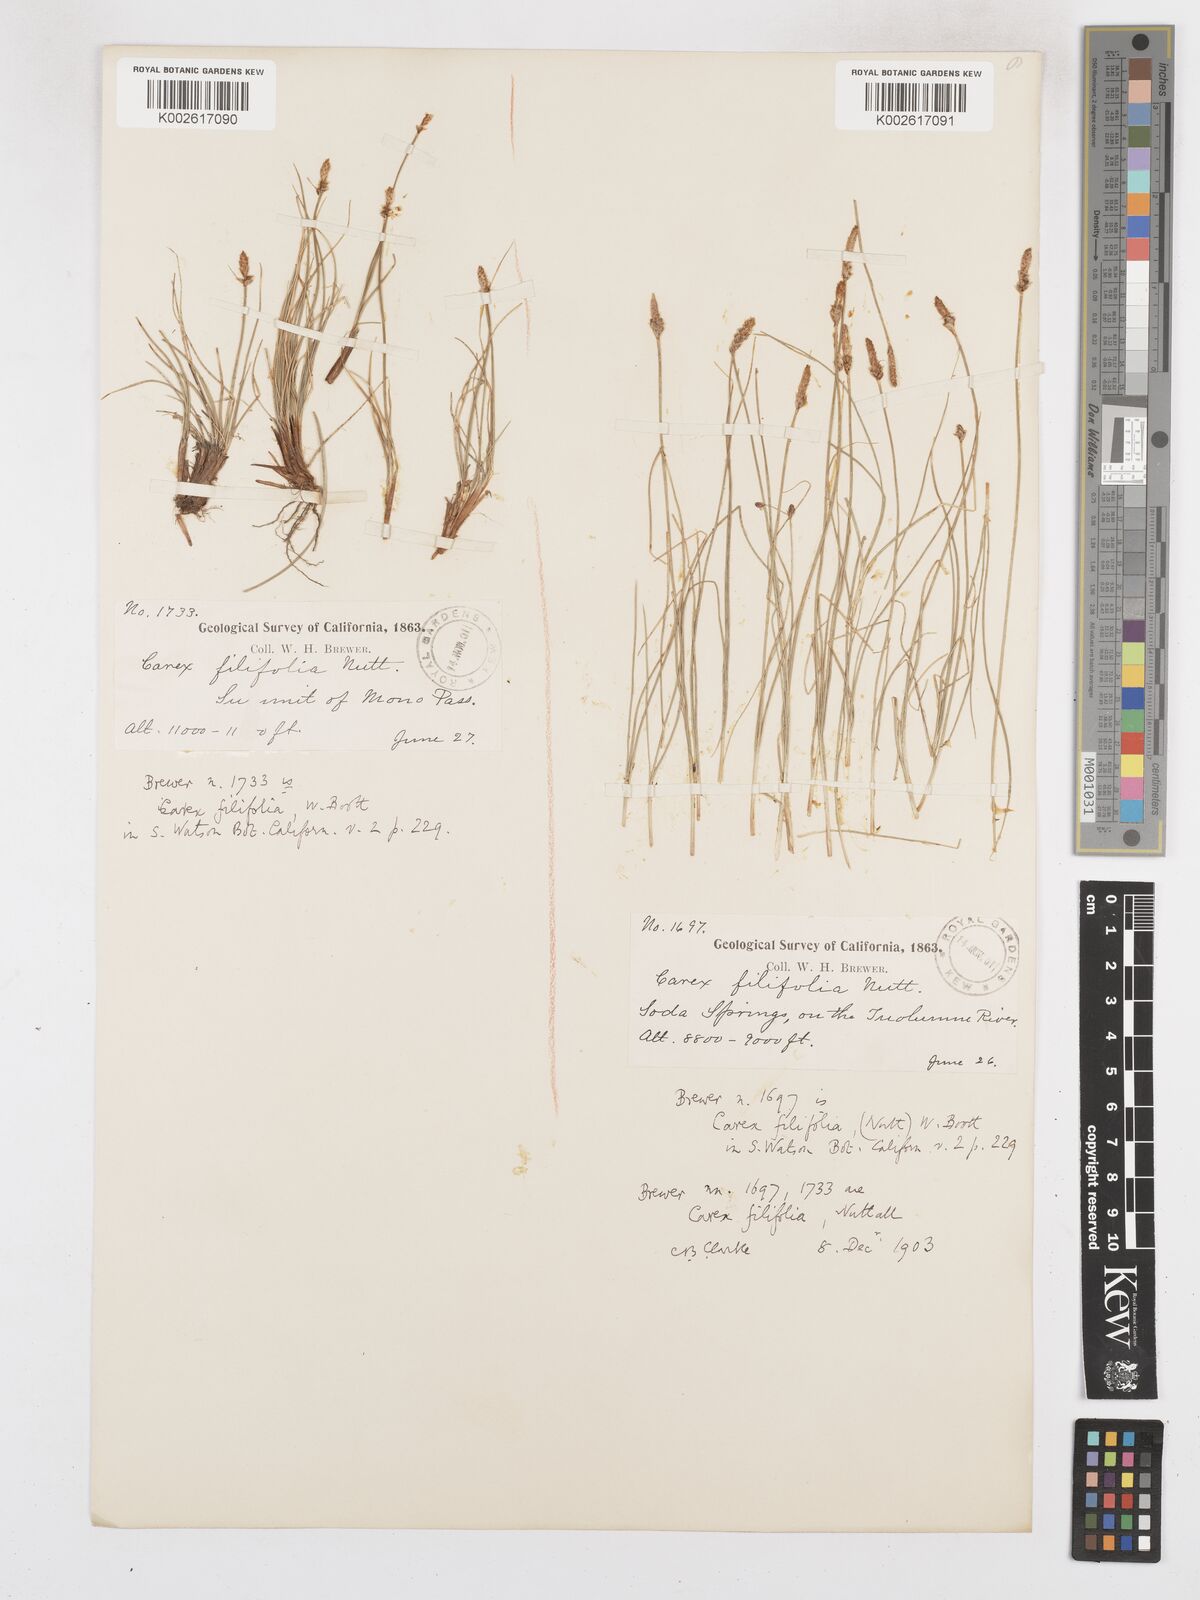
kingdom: Plantae
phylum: Tracheophyta
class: Liliopsida
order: Poales
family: Cyperaceae
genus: Carex
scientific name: Carex glossostigma
